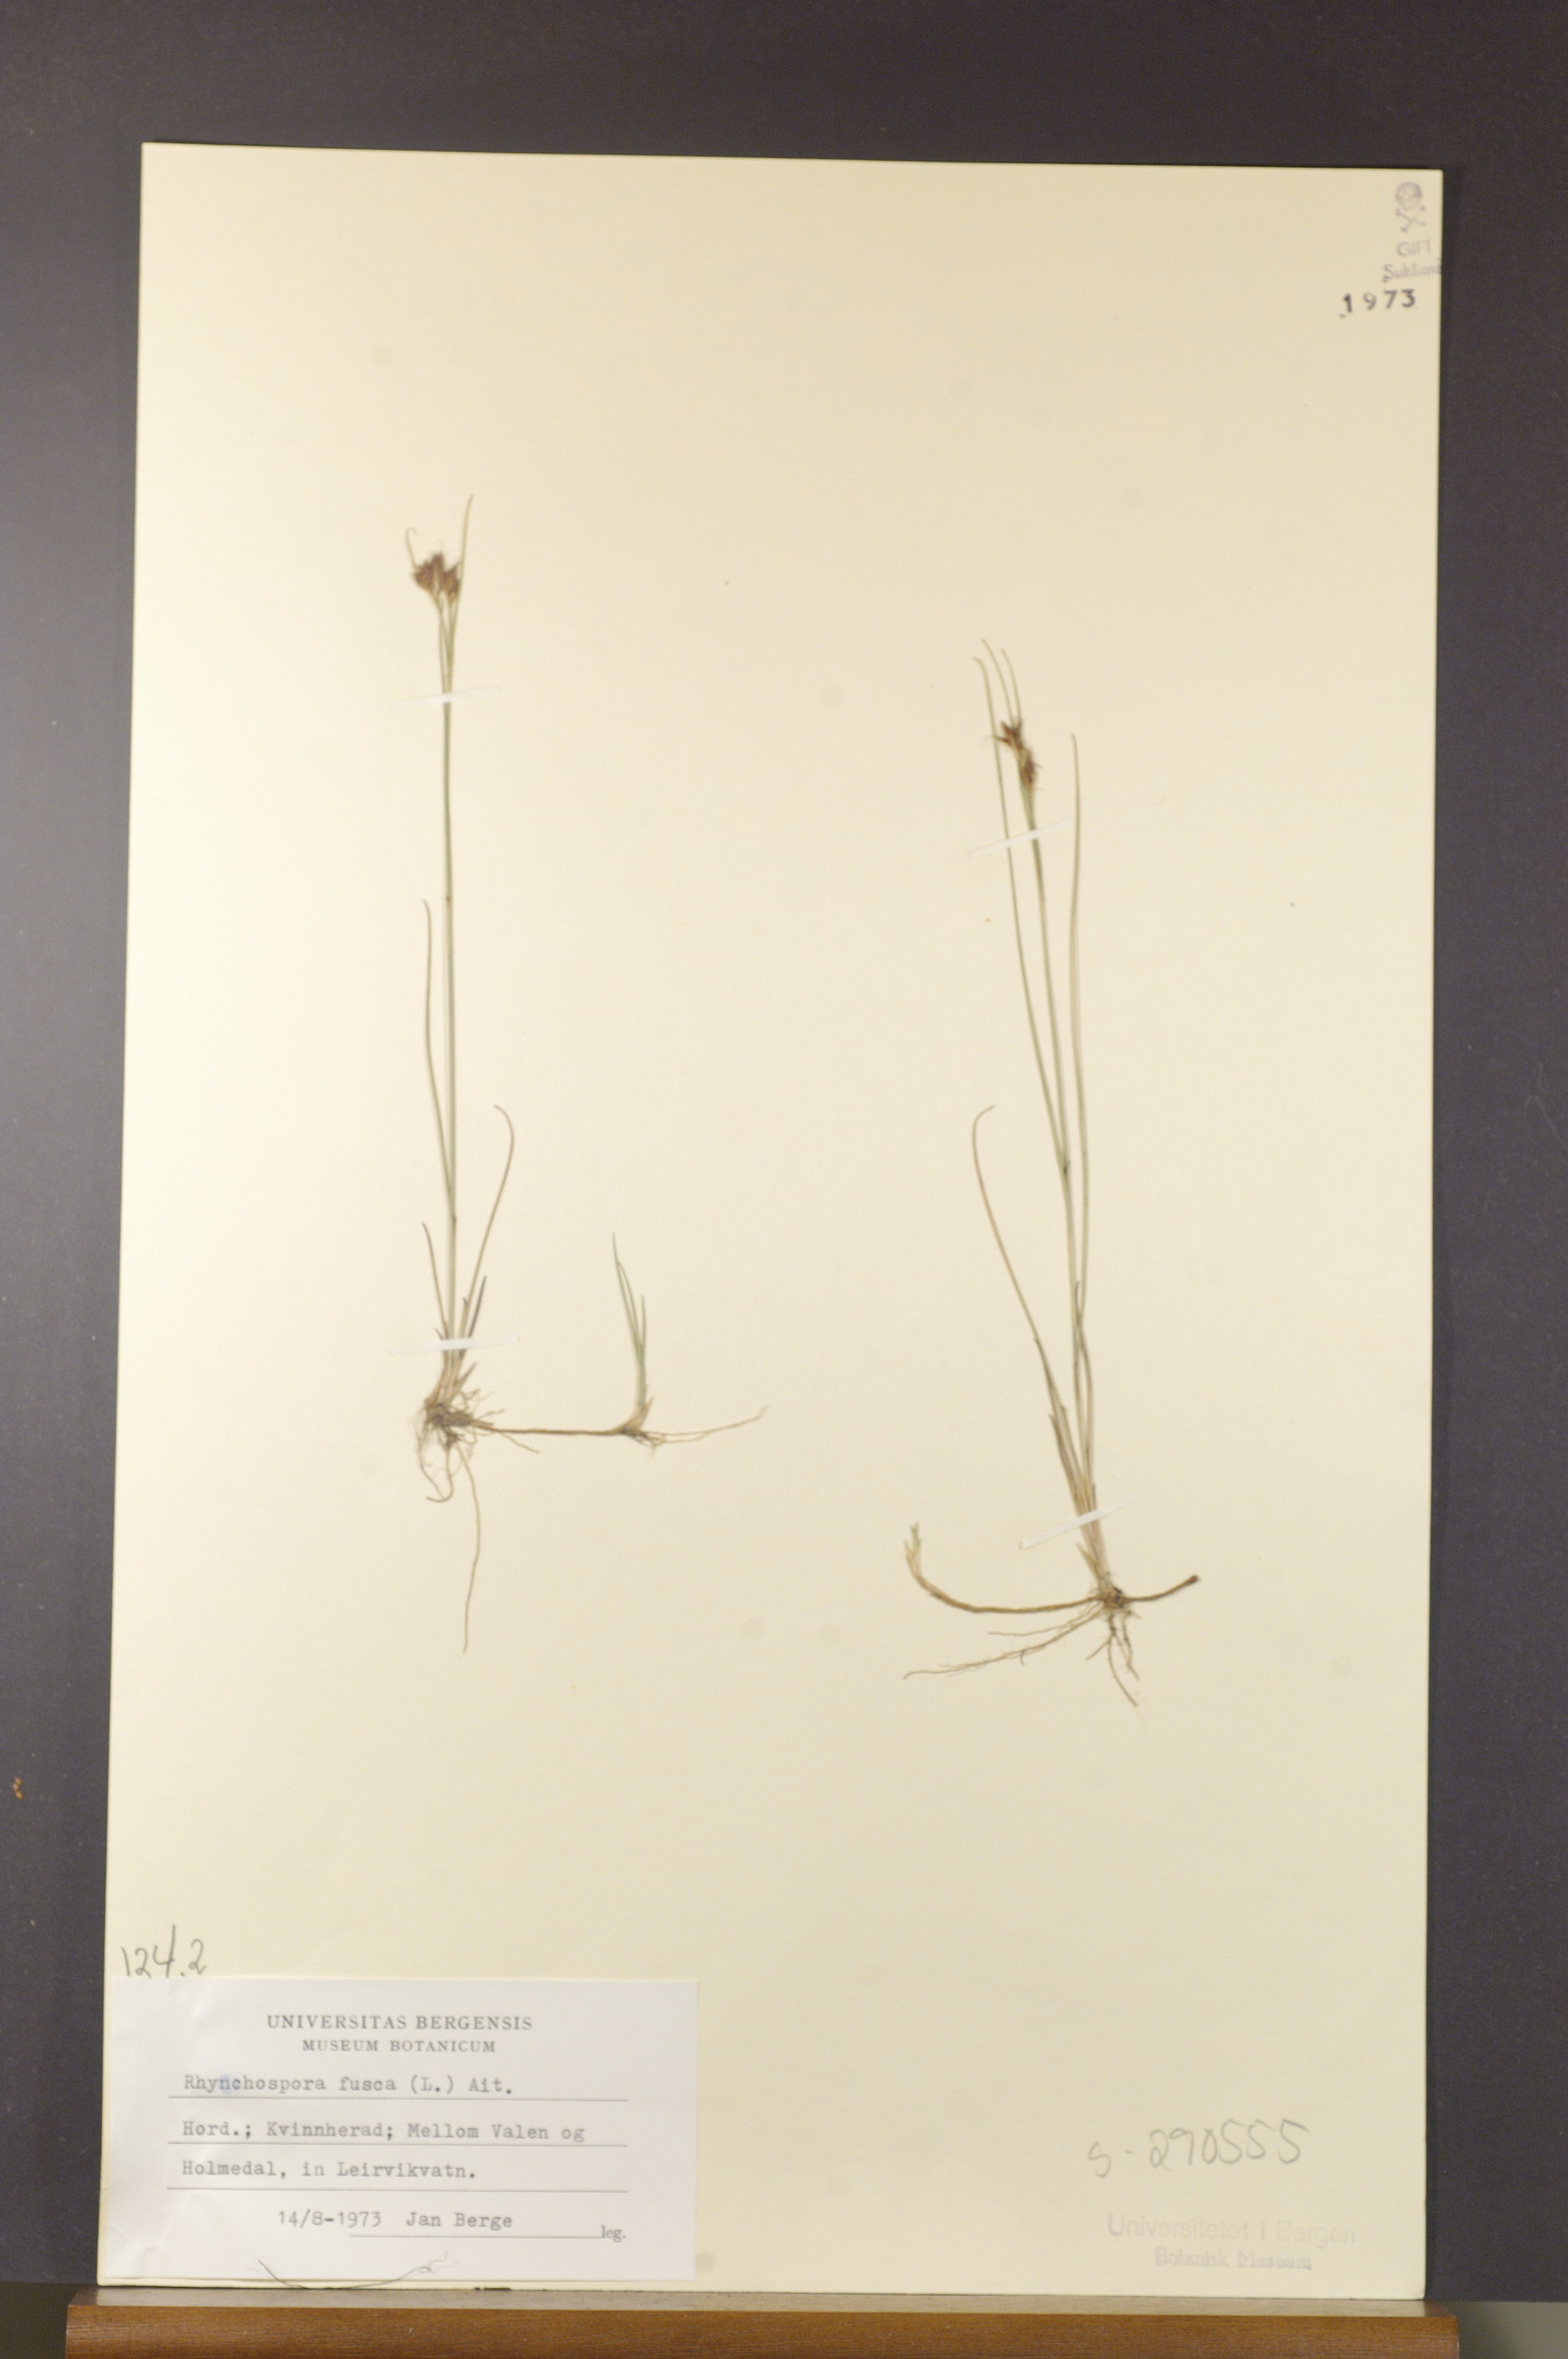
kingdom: Plantae
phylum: Tracheophyta
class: Liliopsida
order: Poales
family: Cyperaceae
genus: Rhynchospora
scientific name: Rhynchospora fusca
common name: Brown beak-sedge
